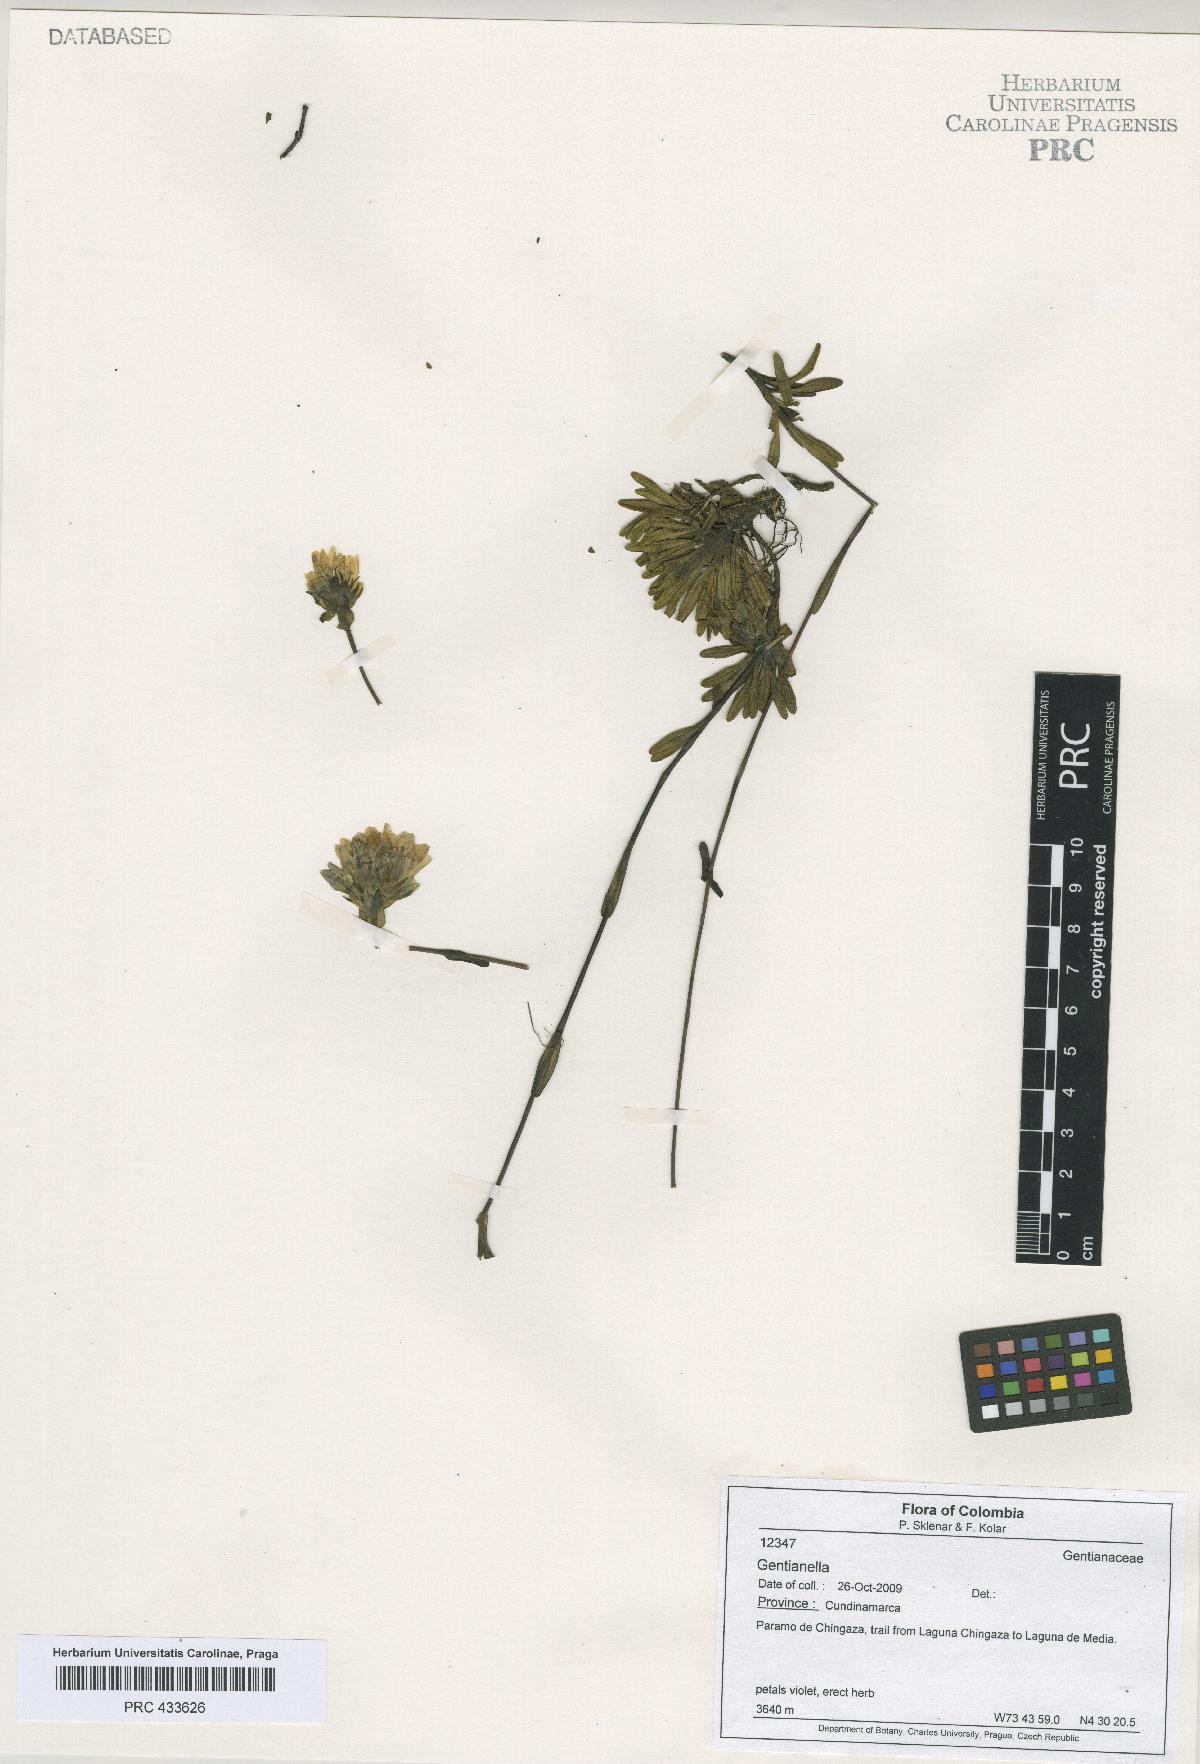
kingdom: Plantae
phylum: Tracheophyta
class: Magnoliopsida
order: Gentianales
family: Gentianaceae
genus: Gentianella
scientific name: Gentianella
